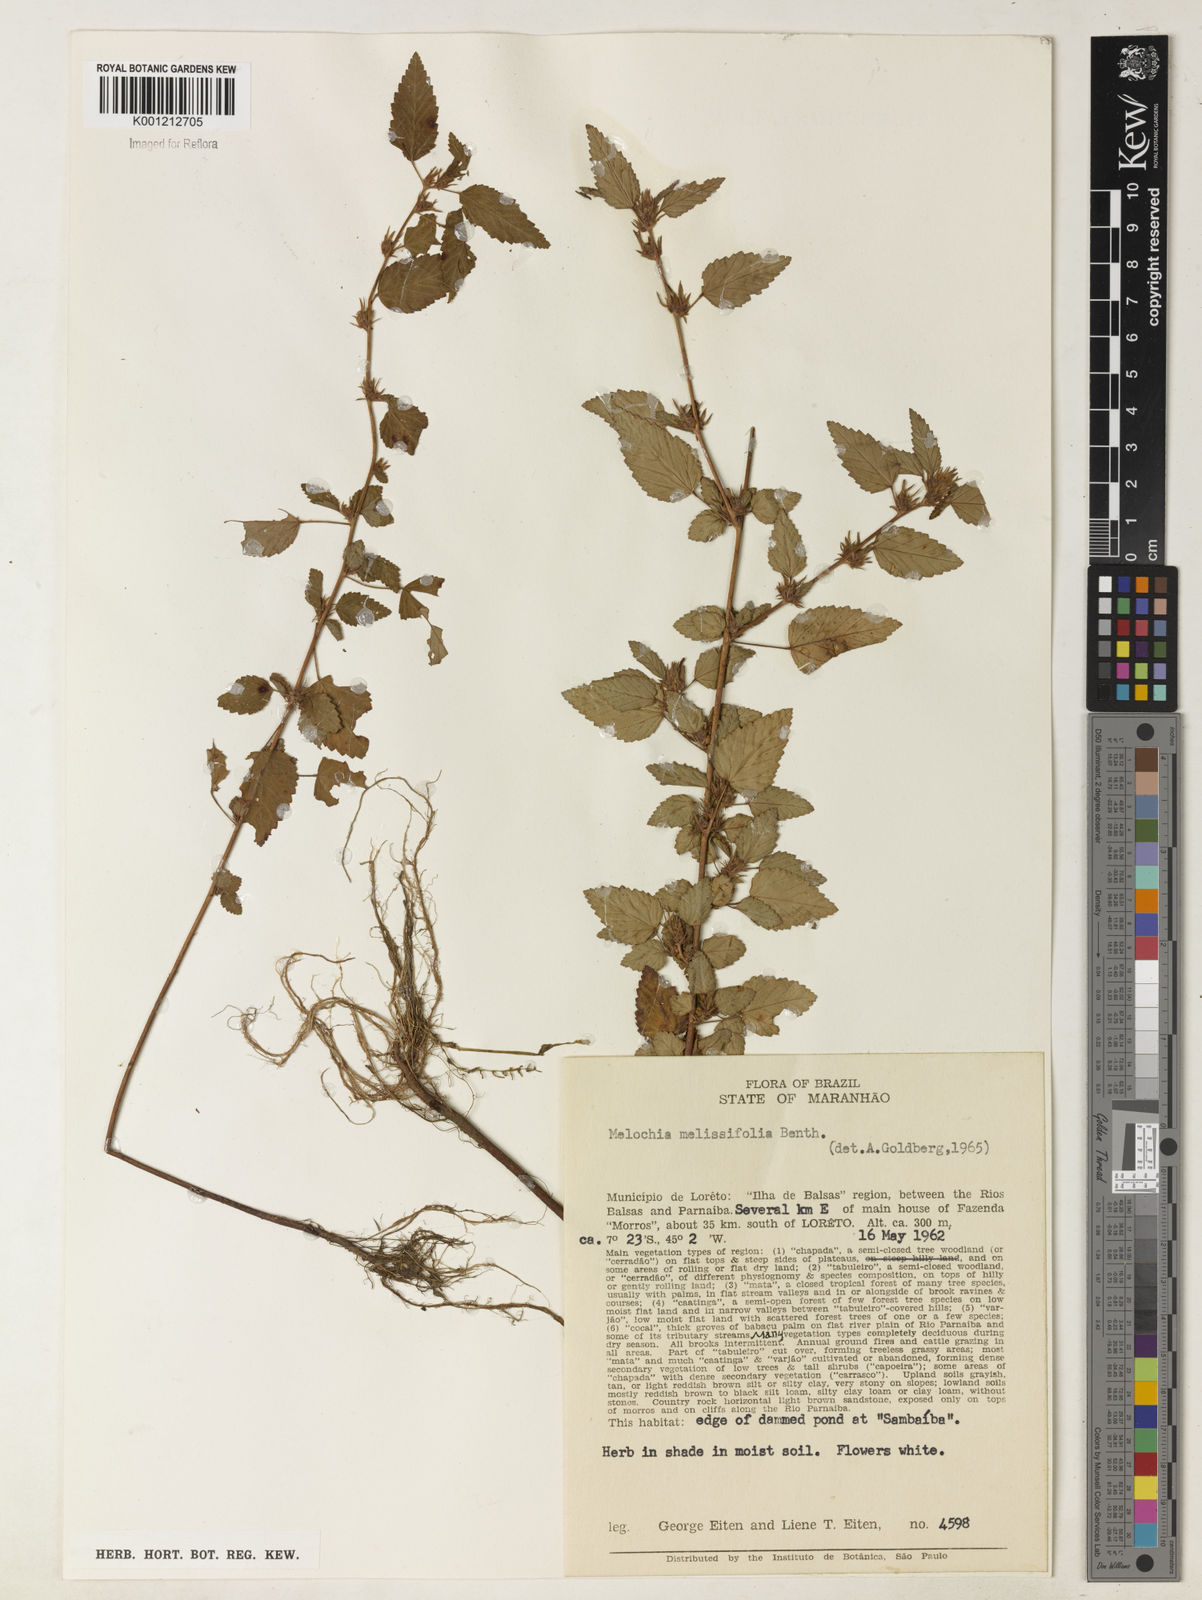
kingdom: Plantae
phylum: Tracheophyta
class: Magnoliopsida
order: Malvales
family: Malvaceae
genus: Melochia
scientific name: Melochia melissifolia
